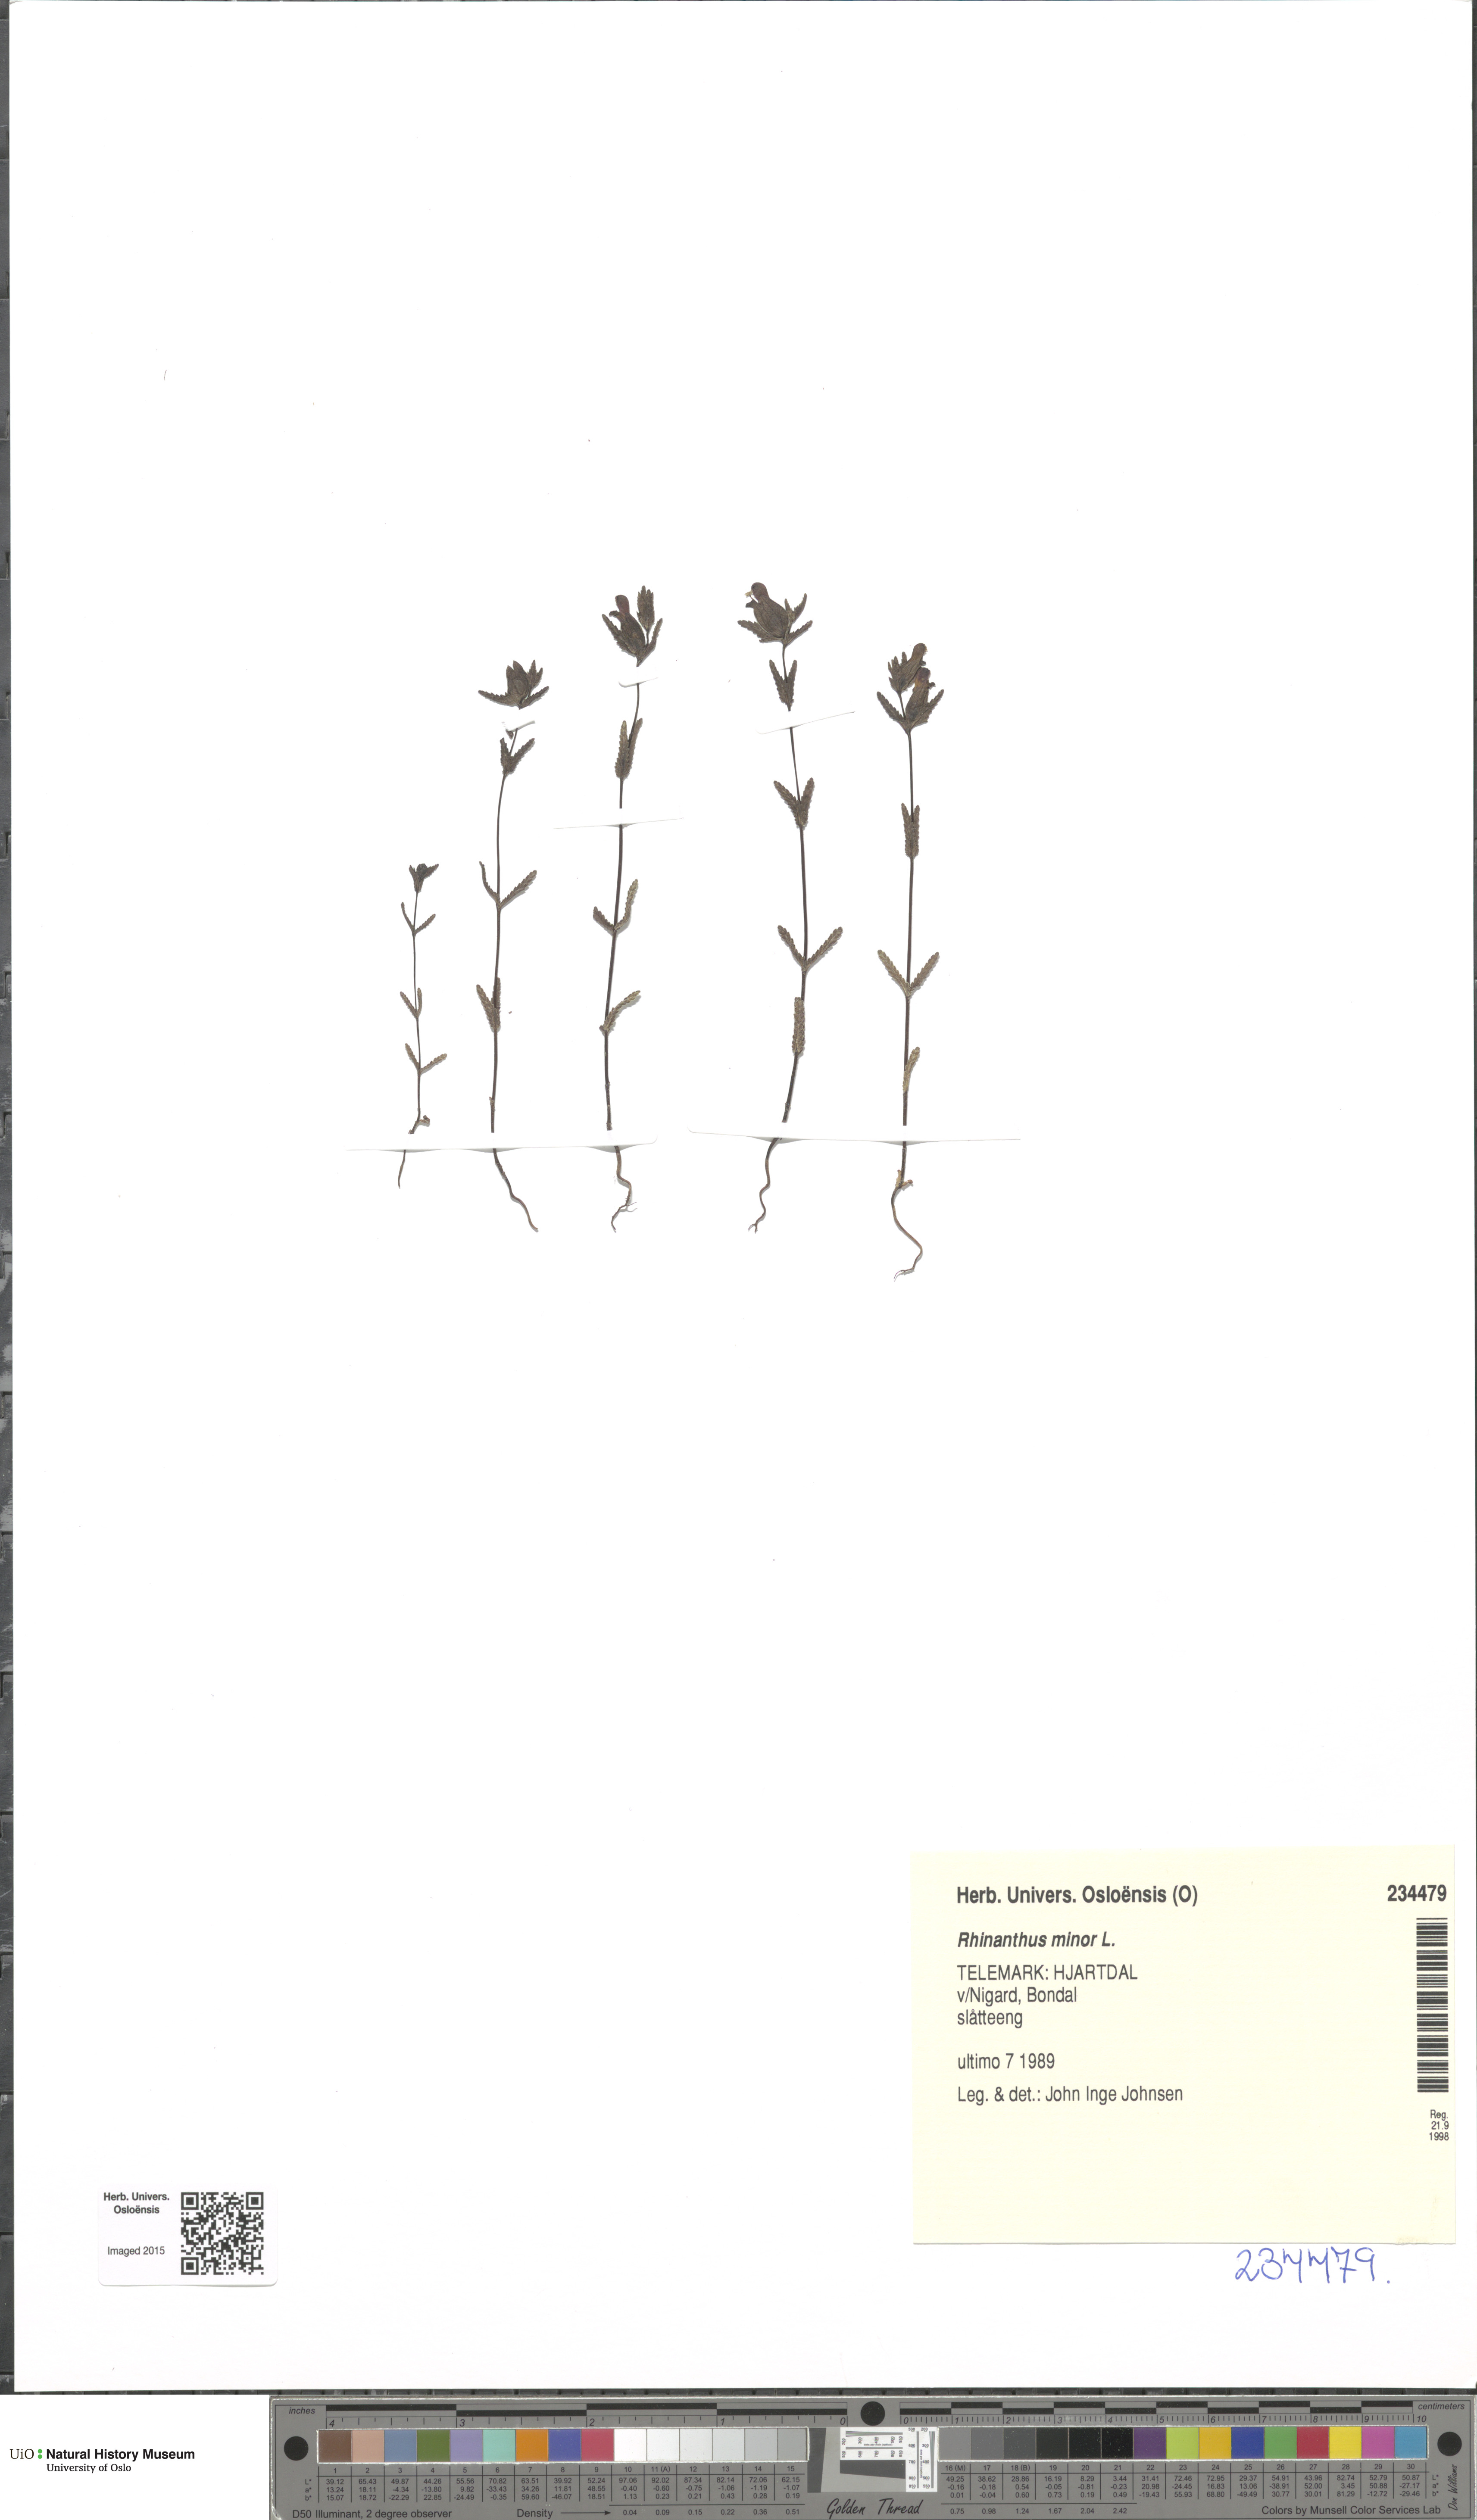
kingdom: Plantae
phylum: Tracheophyta
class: Magnoliopsida
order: Lamiales
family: Orobanchaceae
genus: Rhinanthus
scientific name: Rhinanthus minor
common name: Yellow-rattle
